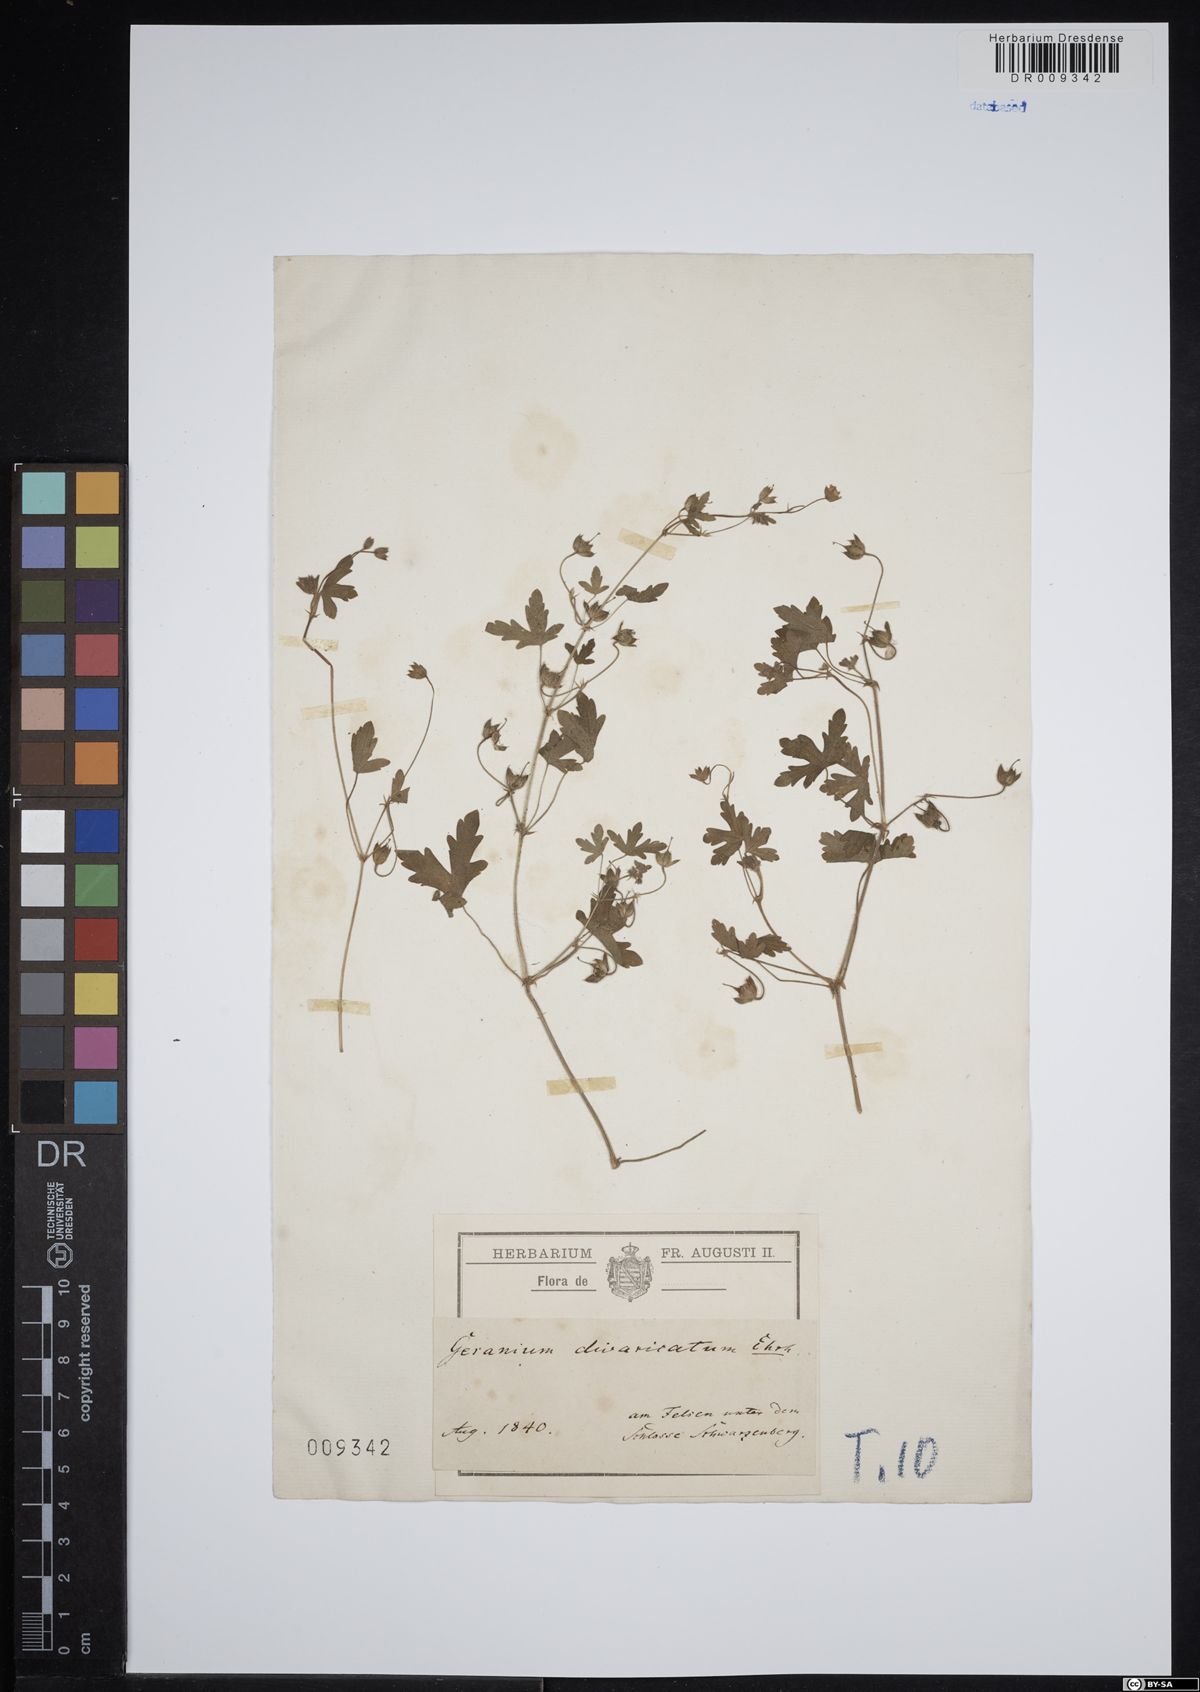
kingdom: Plantae
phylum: Tracheophyta
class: Magnoliopsida
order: Geraniales
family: Geraniaceae
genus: Geranium
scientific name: Geranium divaricatum
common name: Spreading crane's-bill
